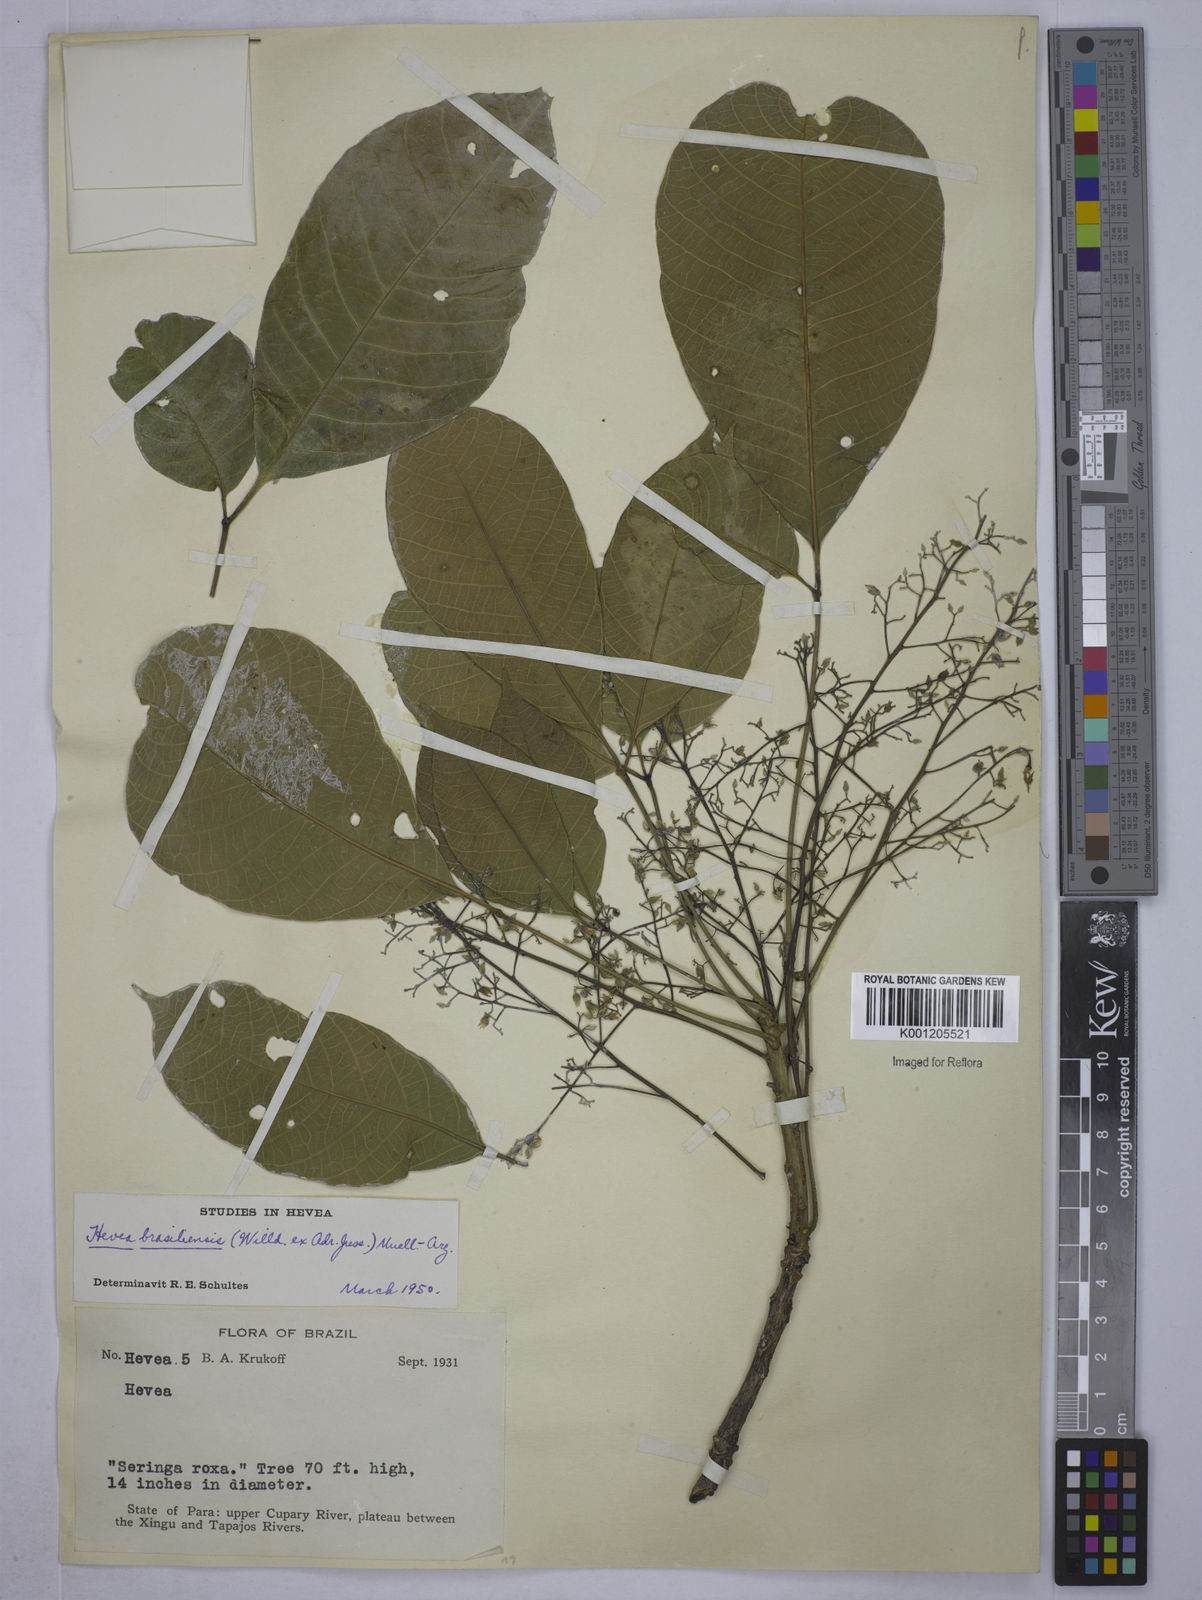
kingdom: Plantae
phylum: Tracheophyta
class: Magnoliopsida
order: Malpighiales
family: Euphorbiaceae
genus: Hevea
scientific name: Hevea
